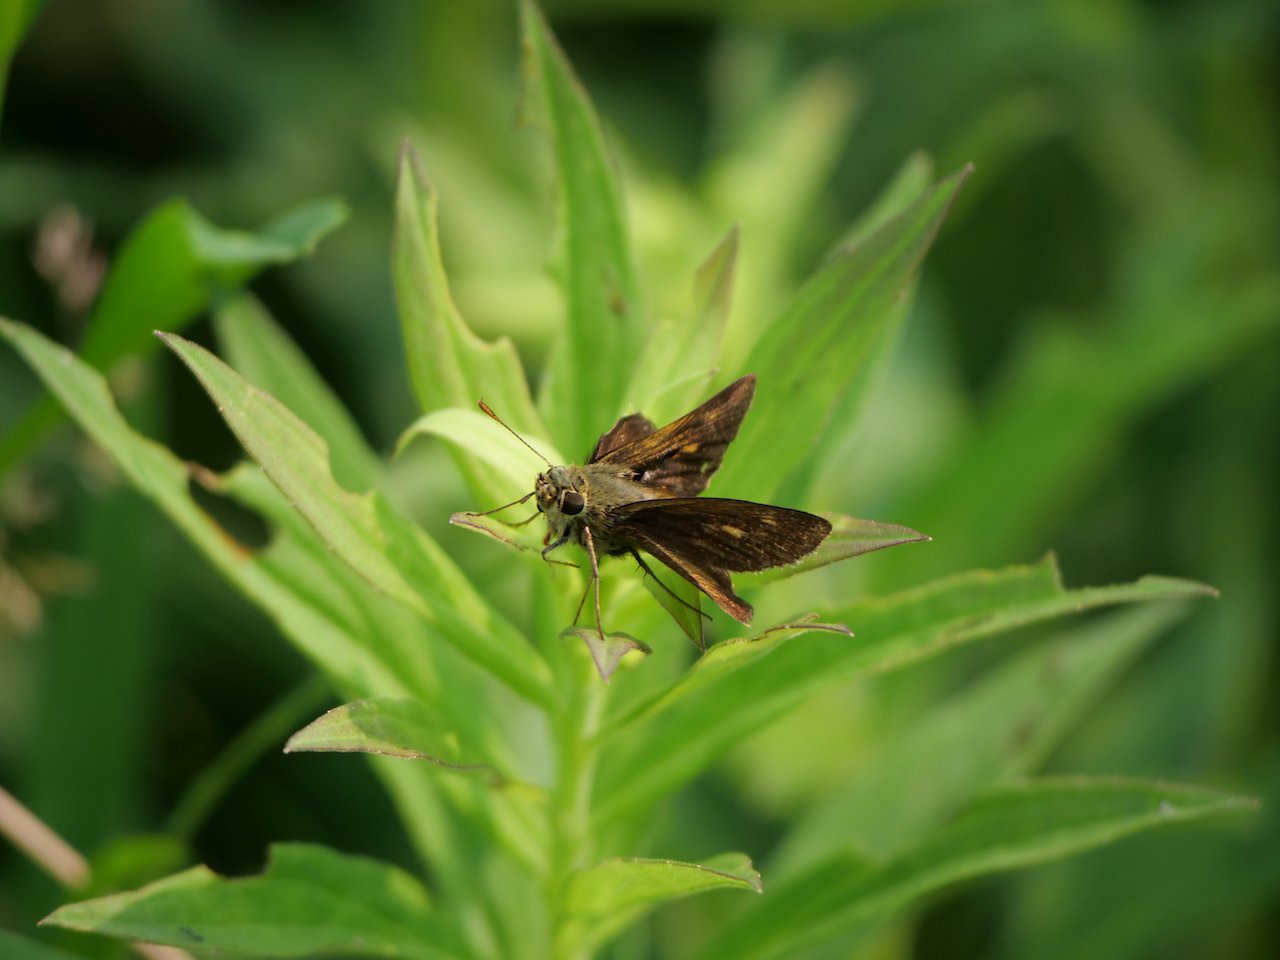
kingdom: Animalia
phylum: Arthropoda
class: Insecta
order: Lepidoptera
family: Hesperiidae
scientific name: Hesperiidae
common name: Skippers
